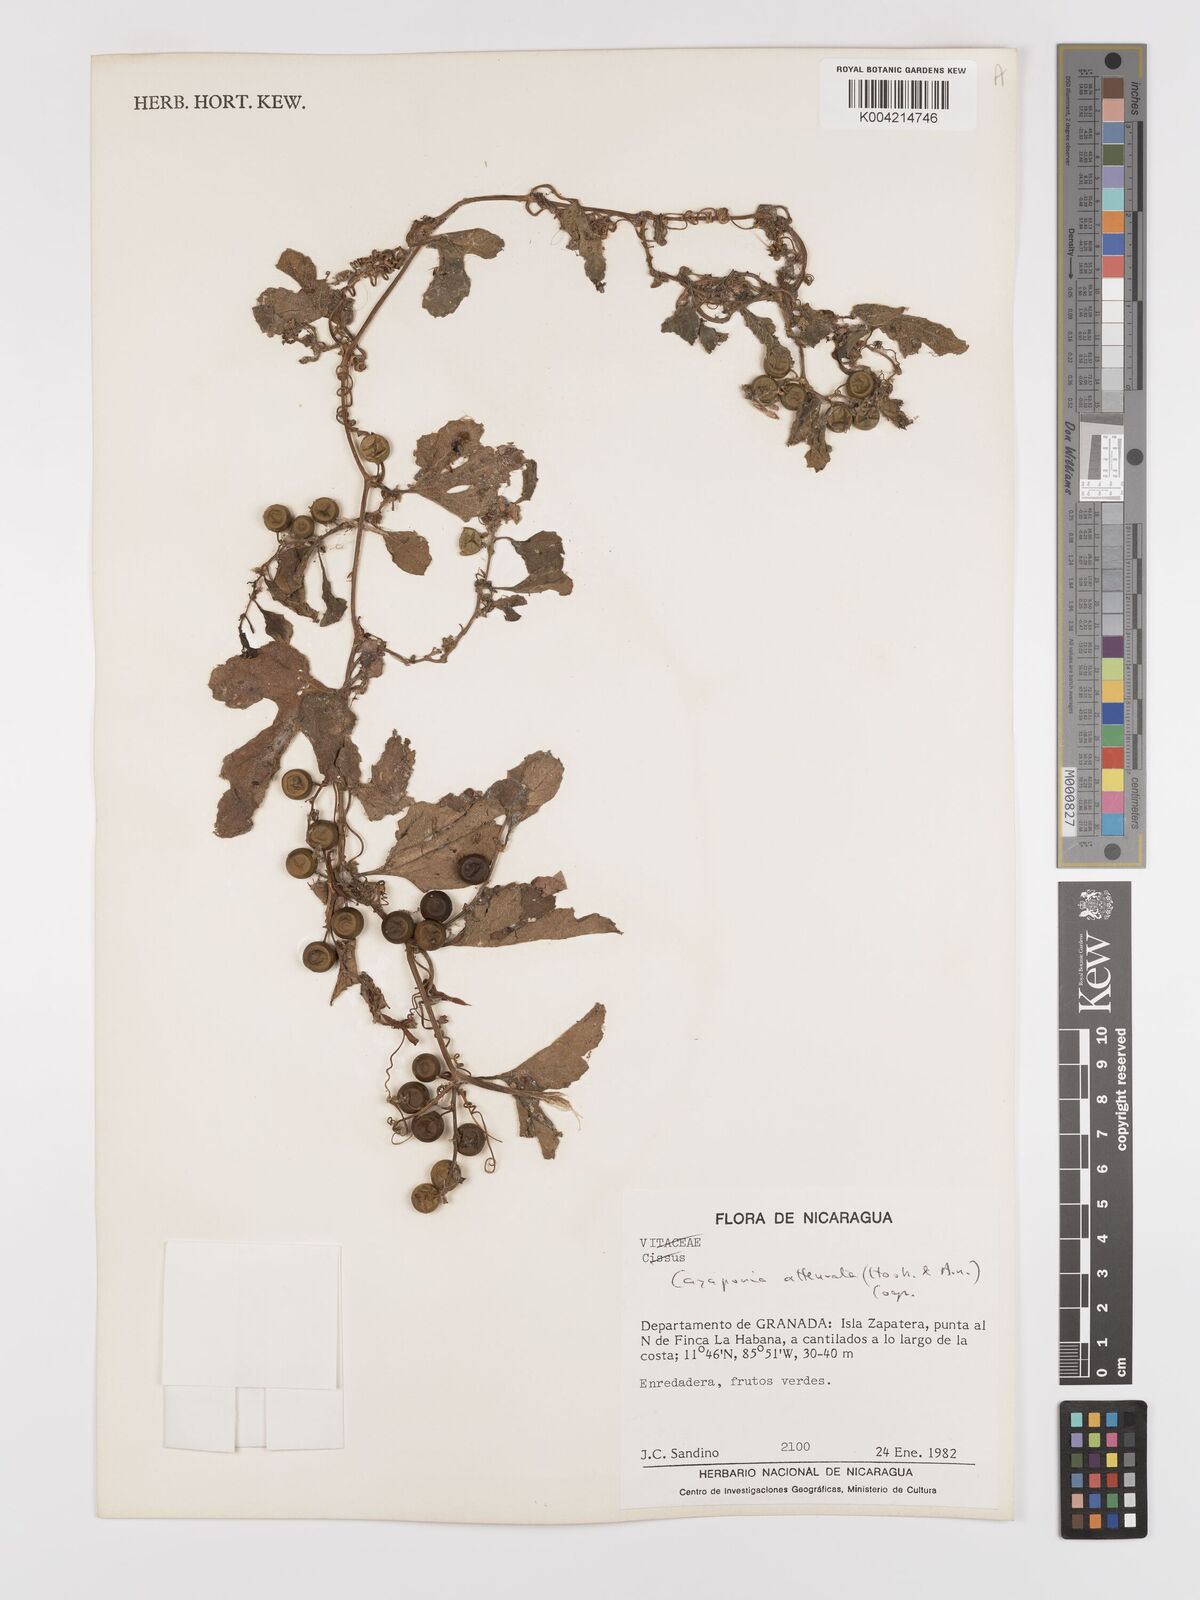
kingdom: Plantae
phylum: Tracheophyta
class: Magnoliopsida
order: Cucurbitales
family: Cucurbitaceae
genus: Cayaponia
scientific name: Cayaponia attenuata
